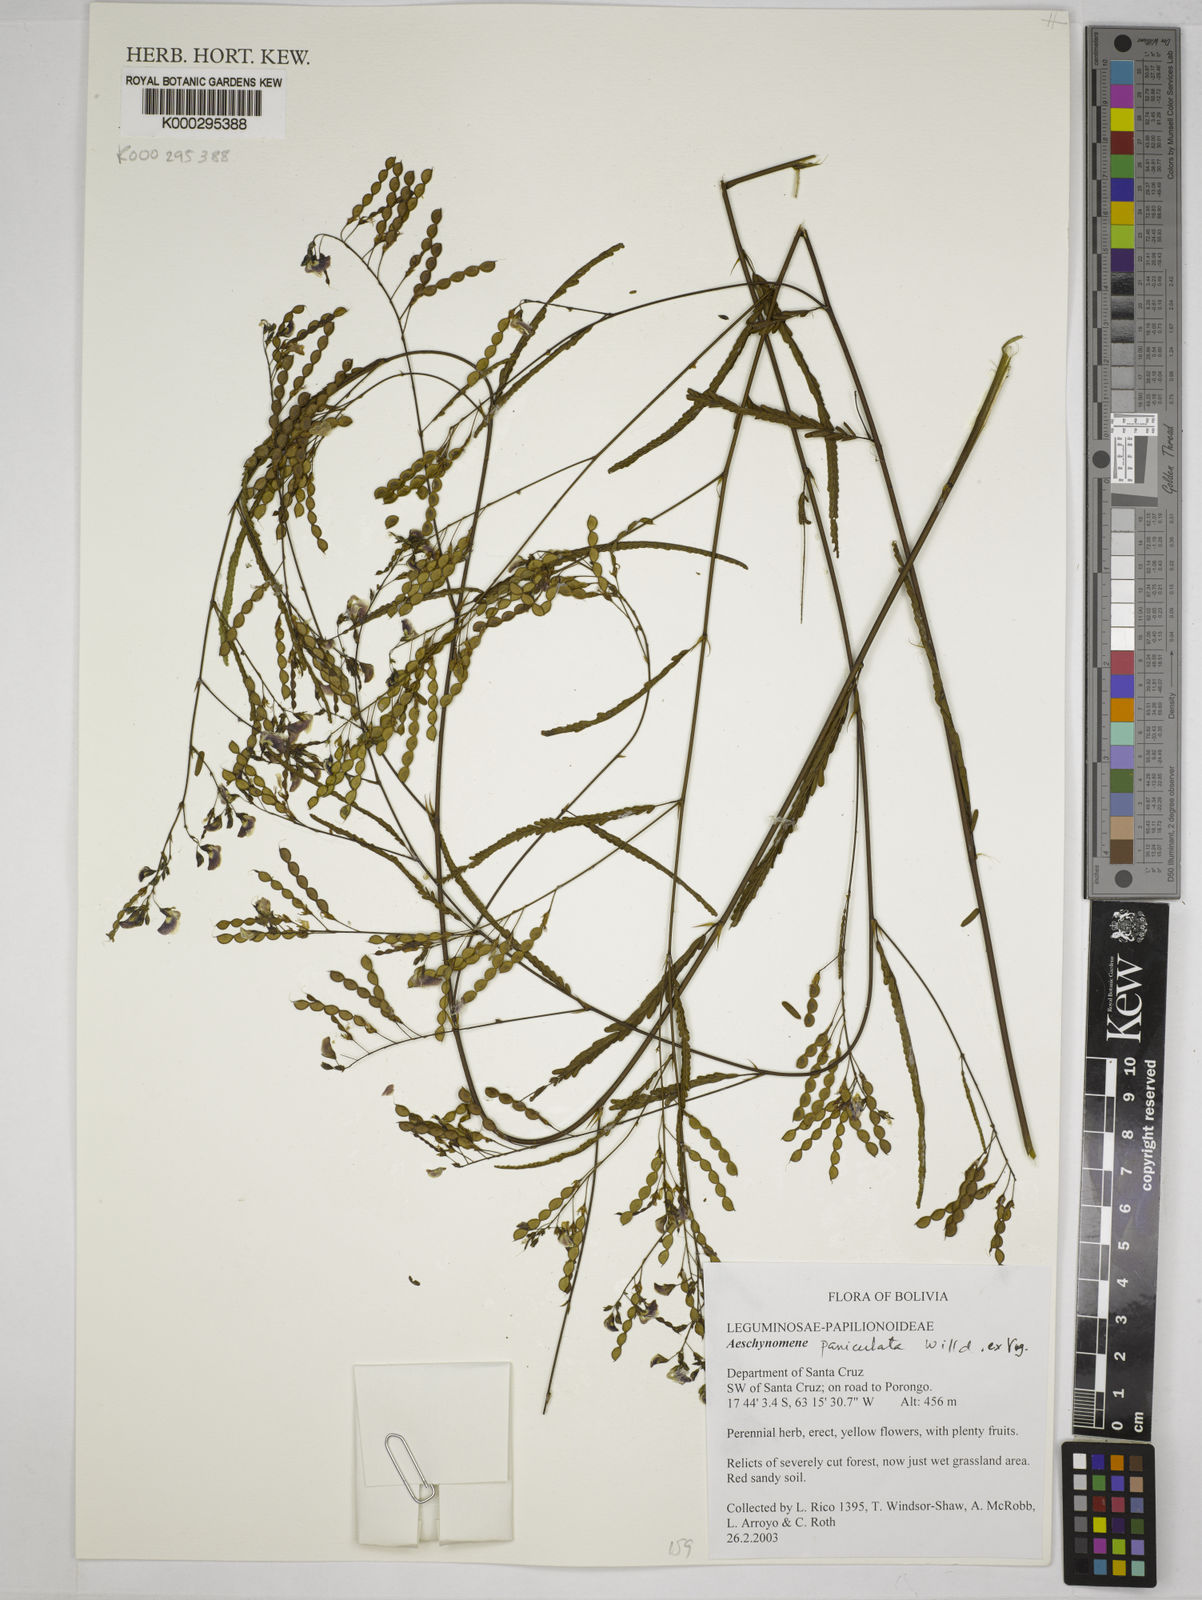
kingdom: Plantae
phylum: Tracheophyta
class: Magnoliopsida
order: Fabales
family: Fabaceae
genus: Aeschynomene
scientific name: Aeschynomene
